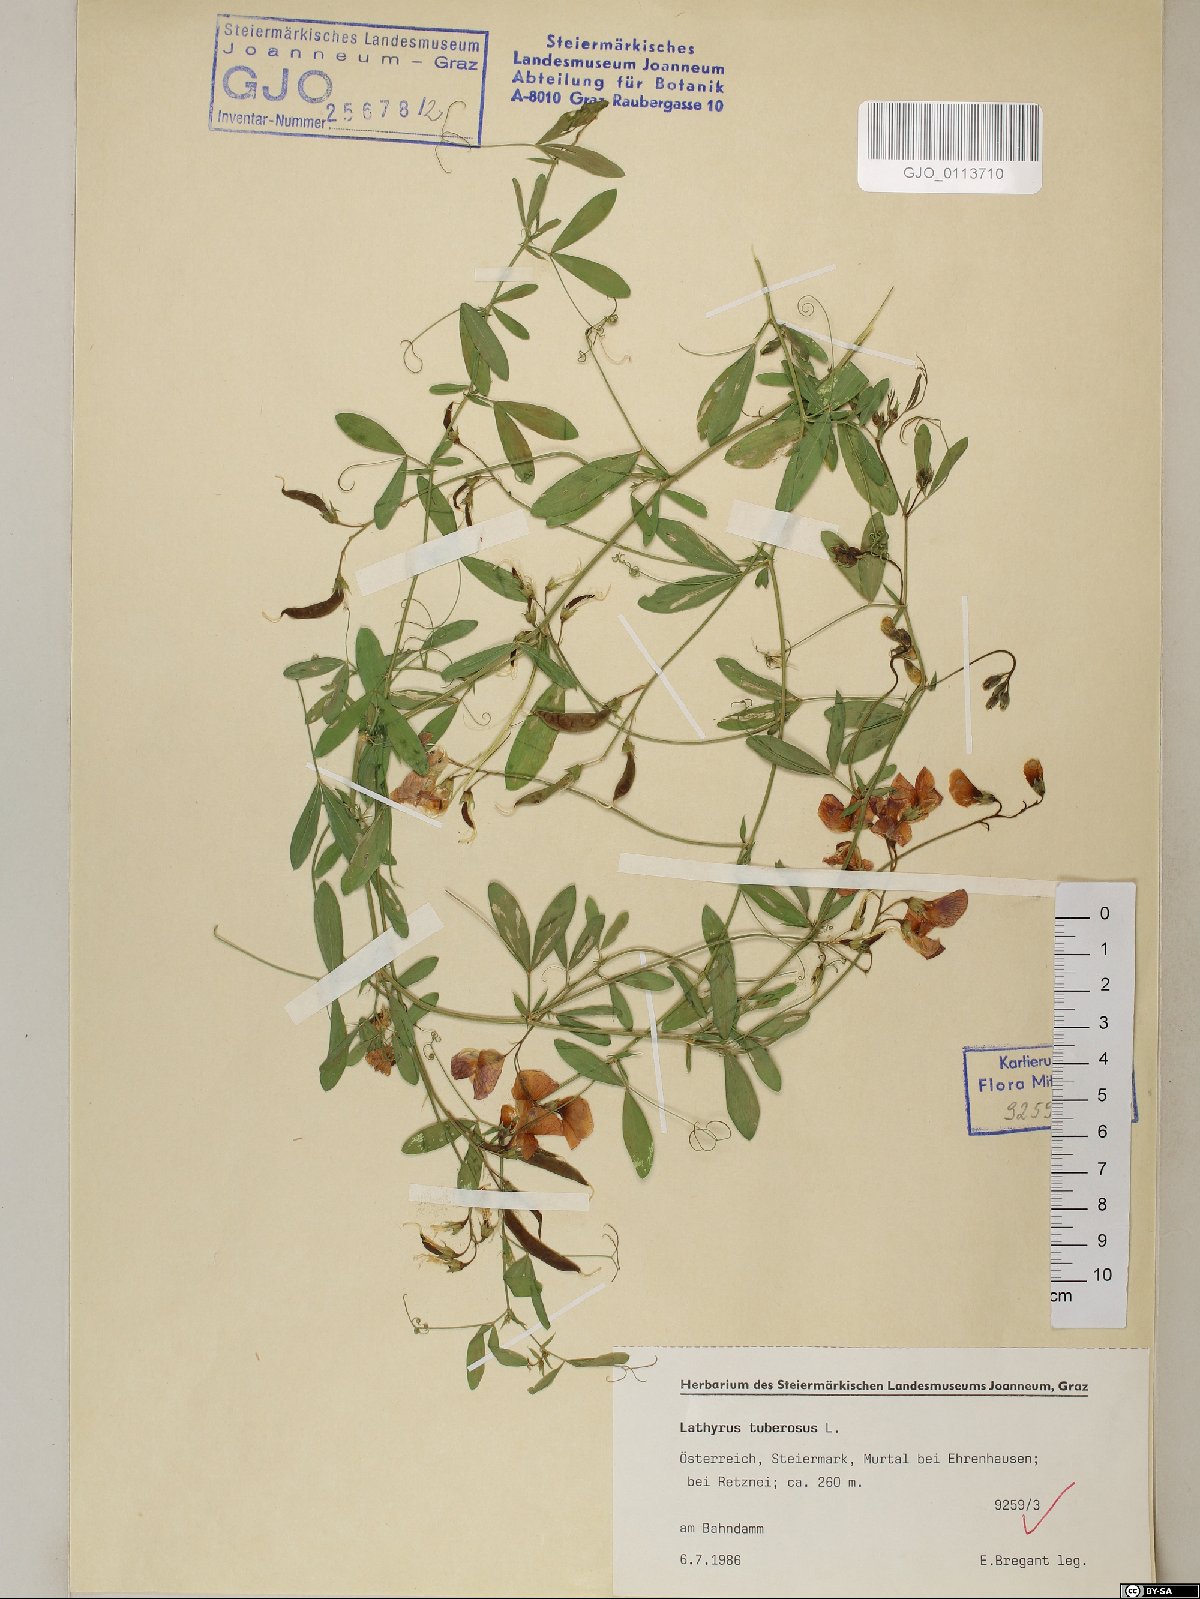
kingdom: Plantae
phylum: Tracheophyta
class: Magnoliopsida
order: Fabales
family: Fabaceae
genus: Lathyrus
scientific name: Lathyrus tuberosus
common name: Tuberous pea
